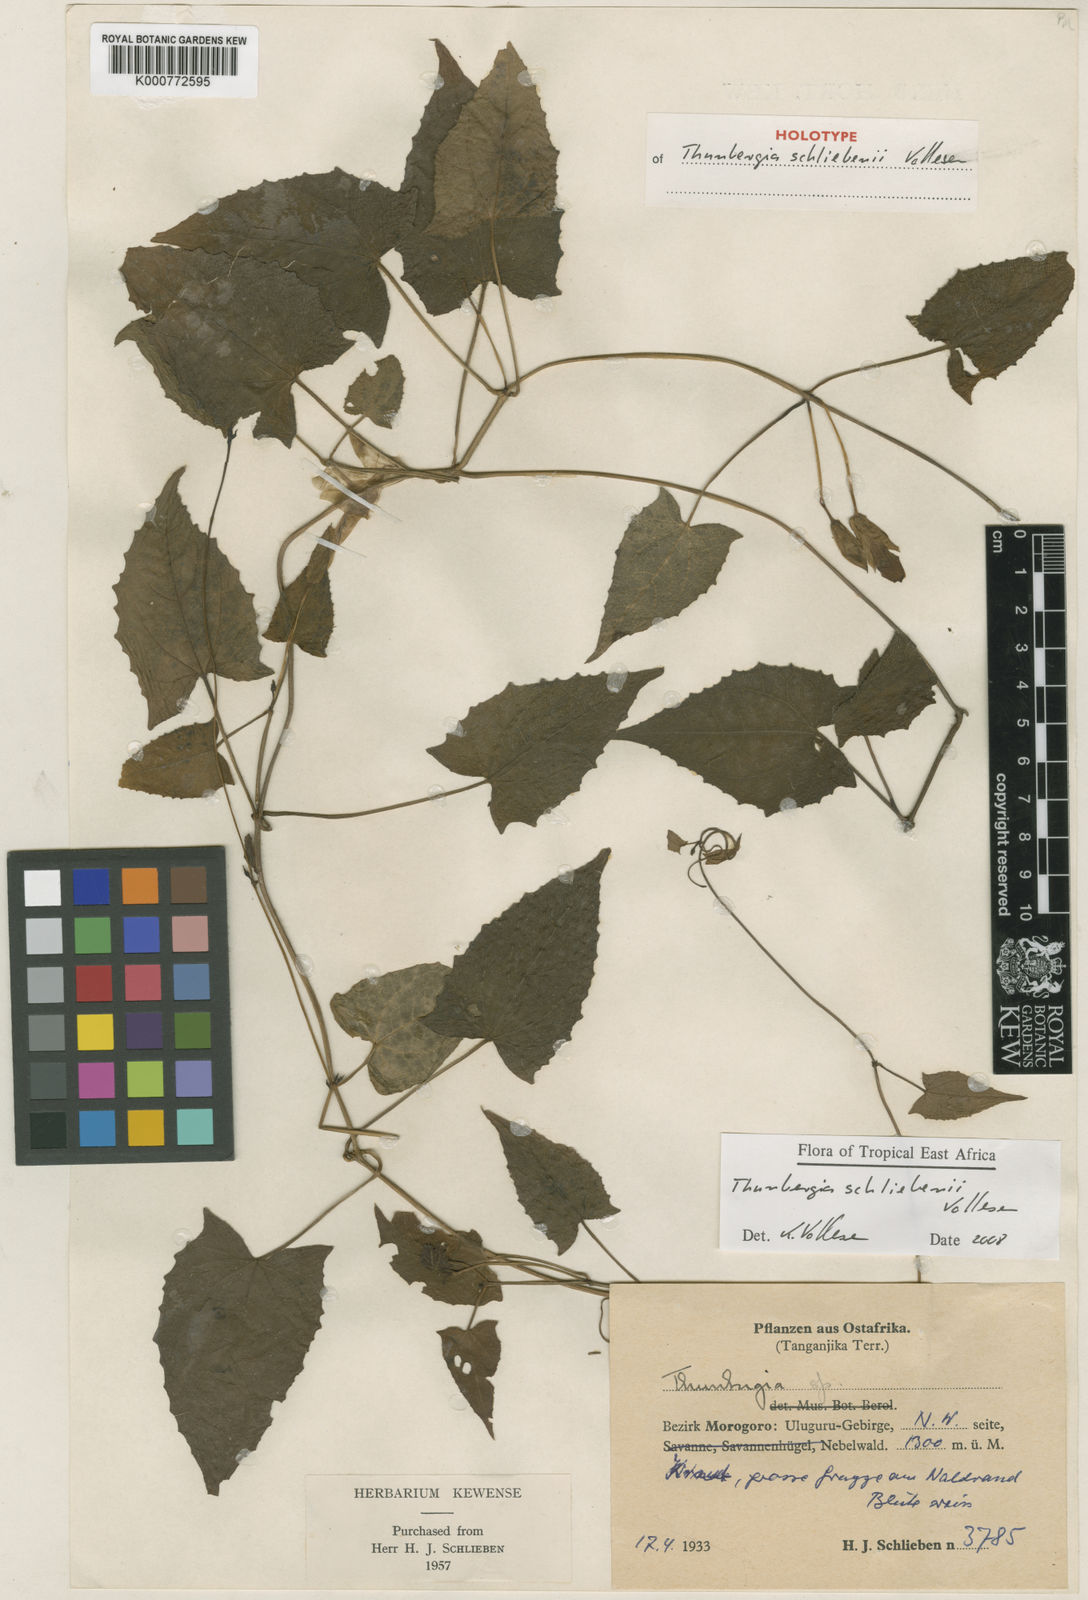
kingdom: Plantae
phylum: Tracheophyta
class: Magnoliopsida
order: Lamiales
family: Acanthaceae
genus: Thunbergia
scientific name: Thunbergia schliebenii
